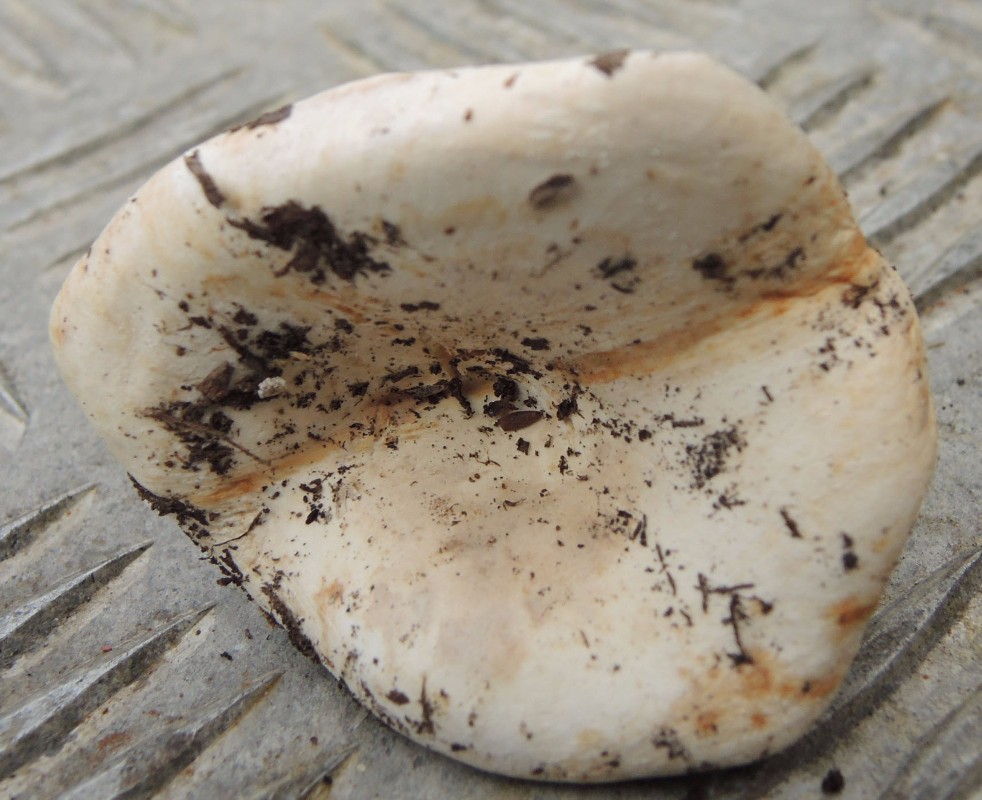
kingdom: Fungi
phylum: Basidiomycota
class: Agaricomycetes
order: Russulales
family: Russulaceae
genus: Russula
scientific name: Russula delica
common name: almindelig tragt-skørhat
